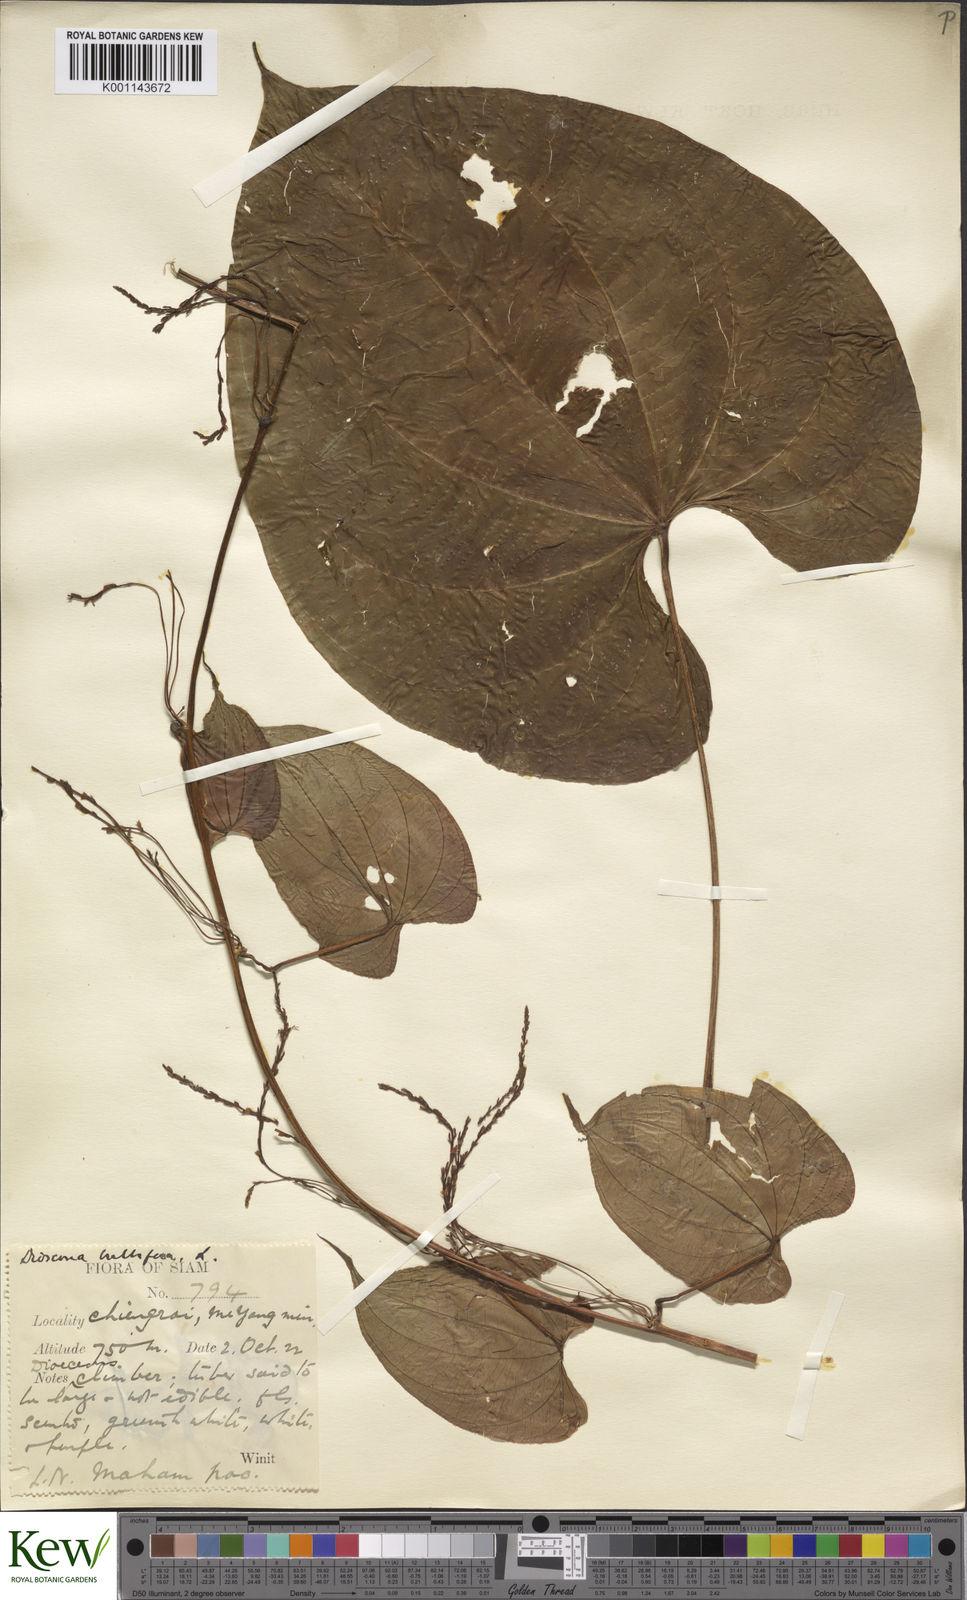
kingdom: Plantae
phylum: Tracheophyta
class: Liliopsida
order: Dioscoreales
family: Dioscoreaceae
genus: Dioscorea
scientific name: Dioscorea bulbifera
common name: Air yam
